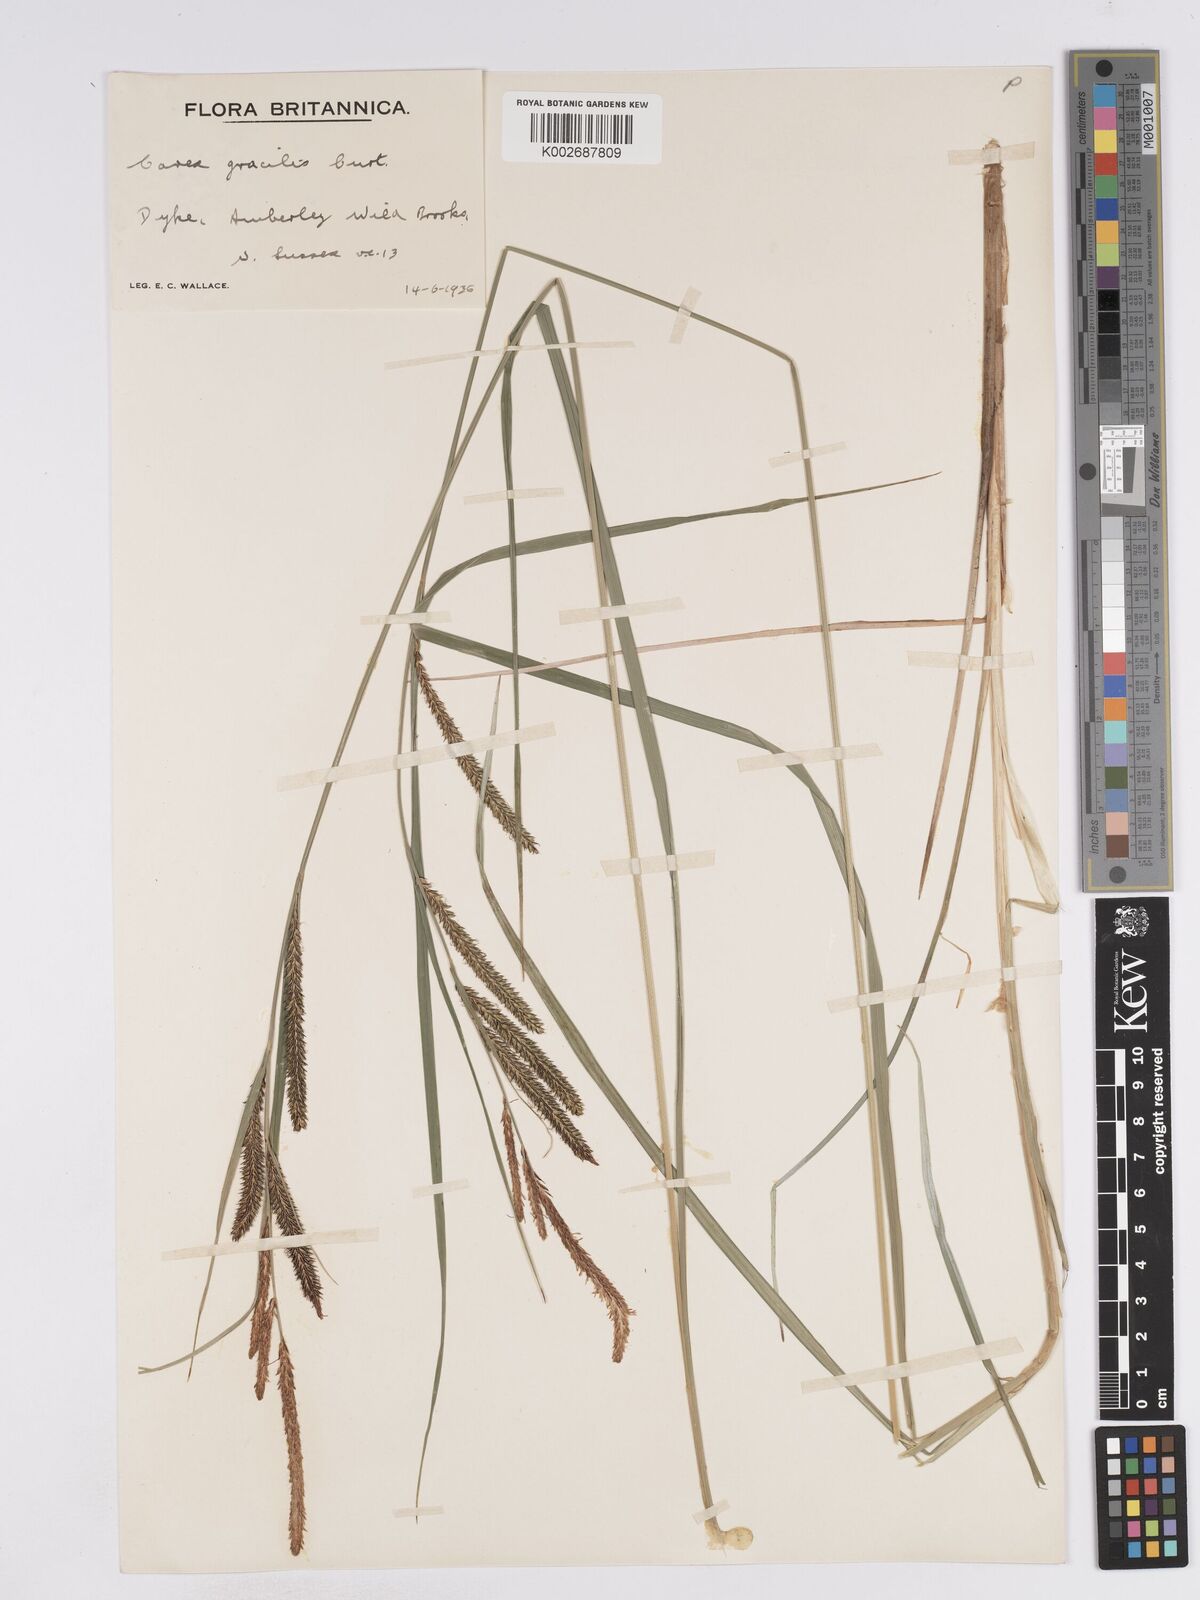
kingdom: Plantae
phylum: Tracheophyta
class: Liliopsida
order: Poales
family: Cyperaceae
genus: Carex
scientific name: Carex acuta
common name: Slender tufted-sedge
